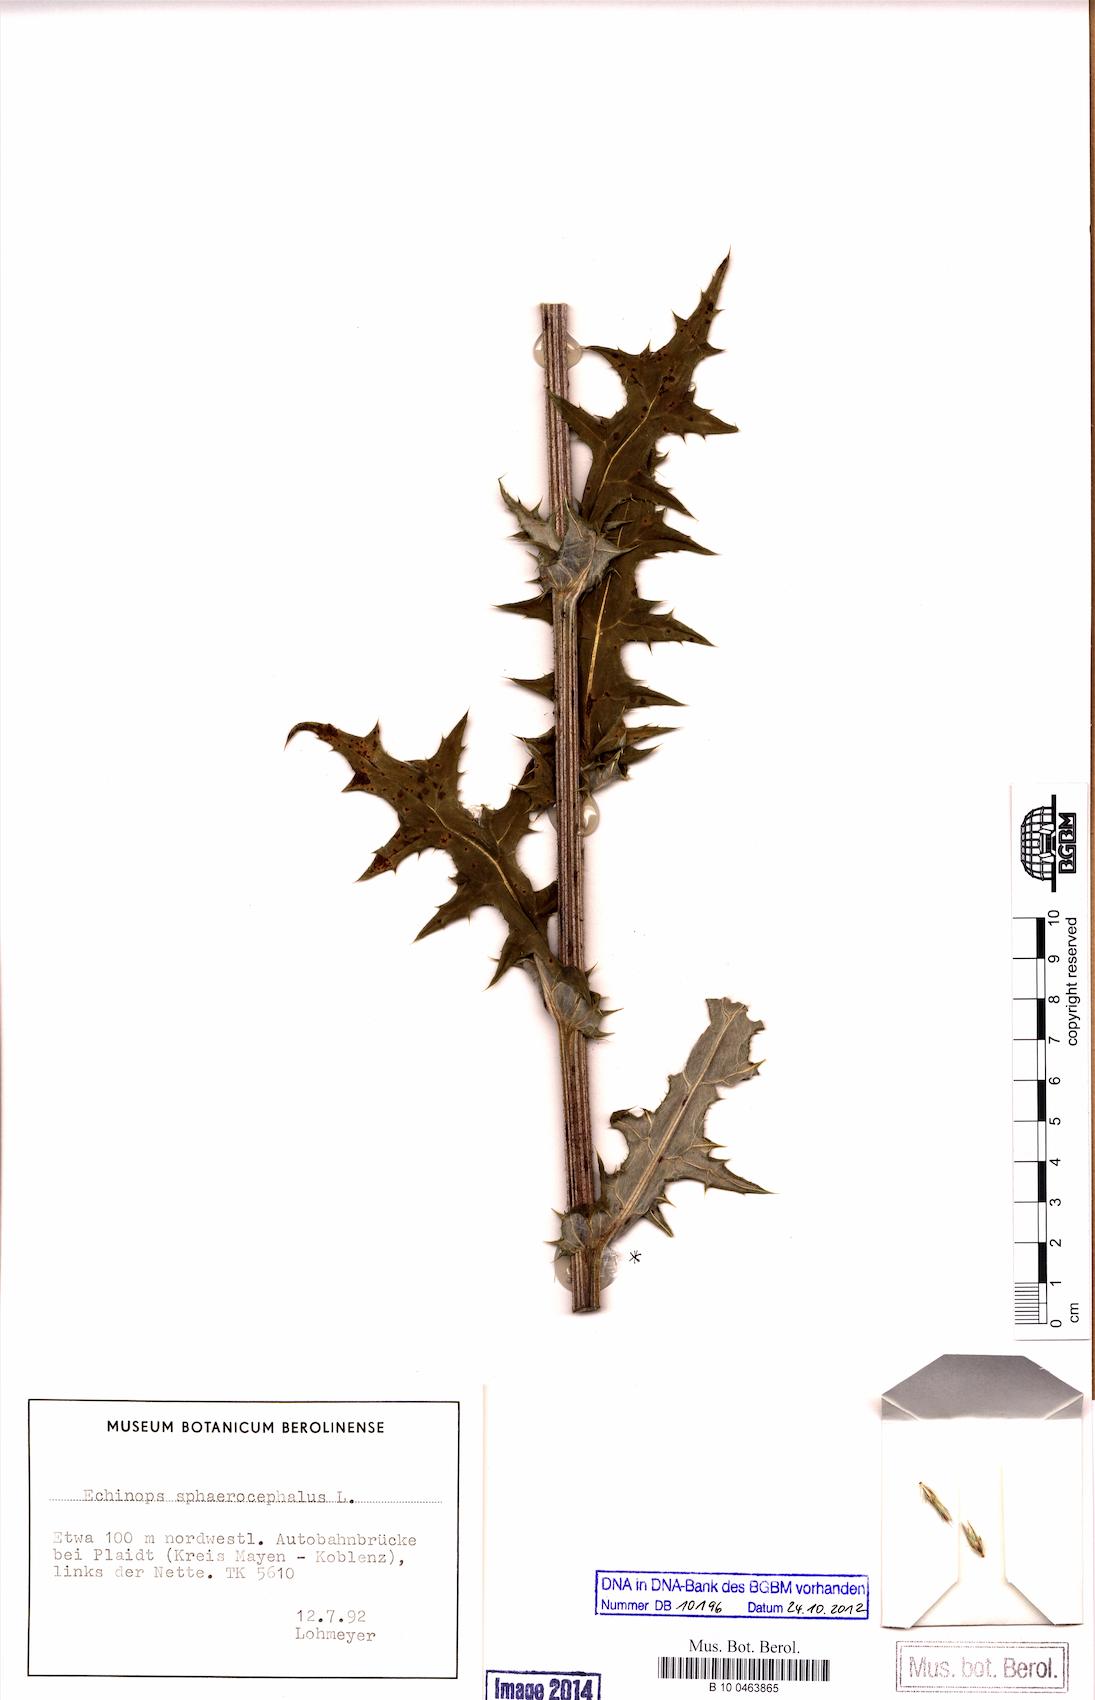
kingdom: Plantae
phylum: Tracheophyta
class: Magnoliopsida
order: Asterales
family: Asteraceae
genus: Echinops
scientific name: Echinops sphaerocephalus
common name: Glandular globe-thistle
